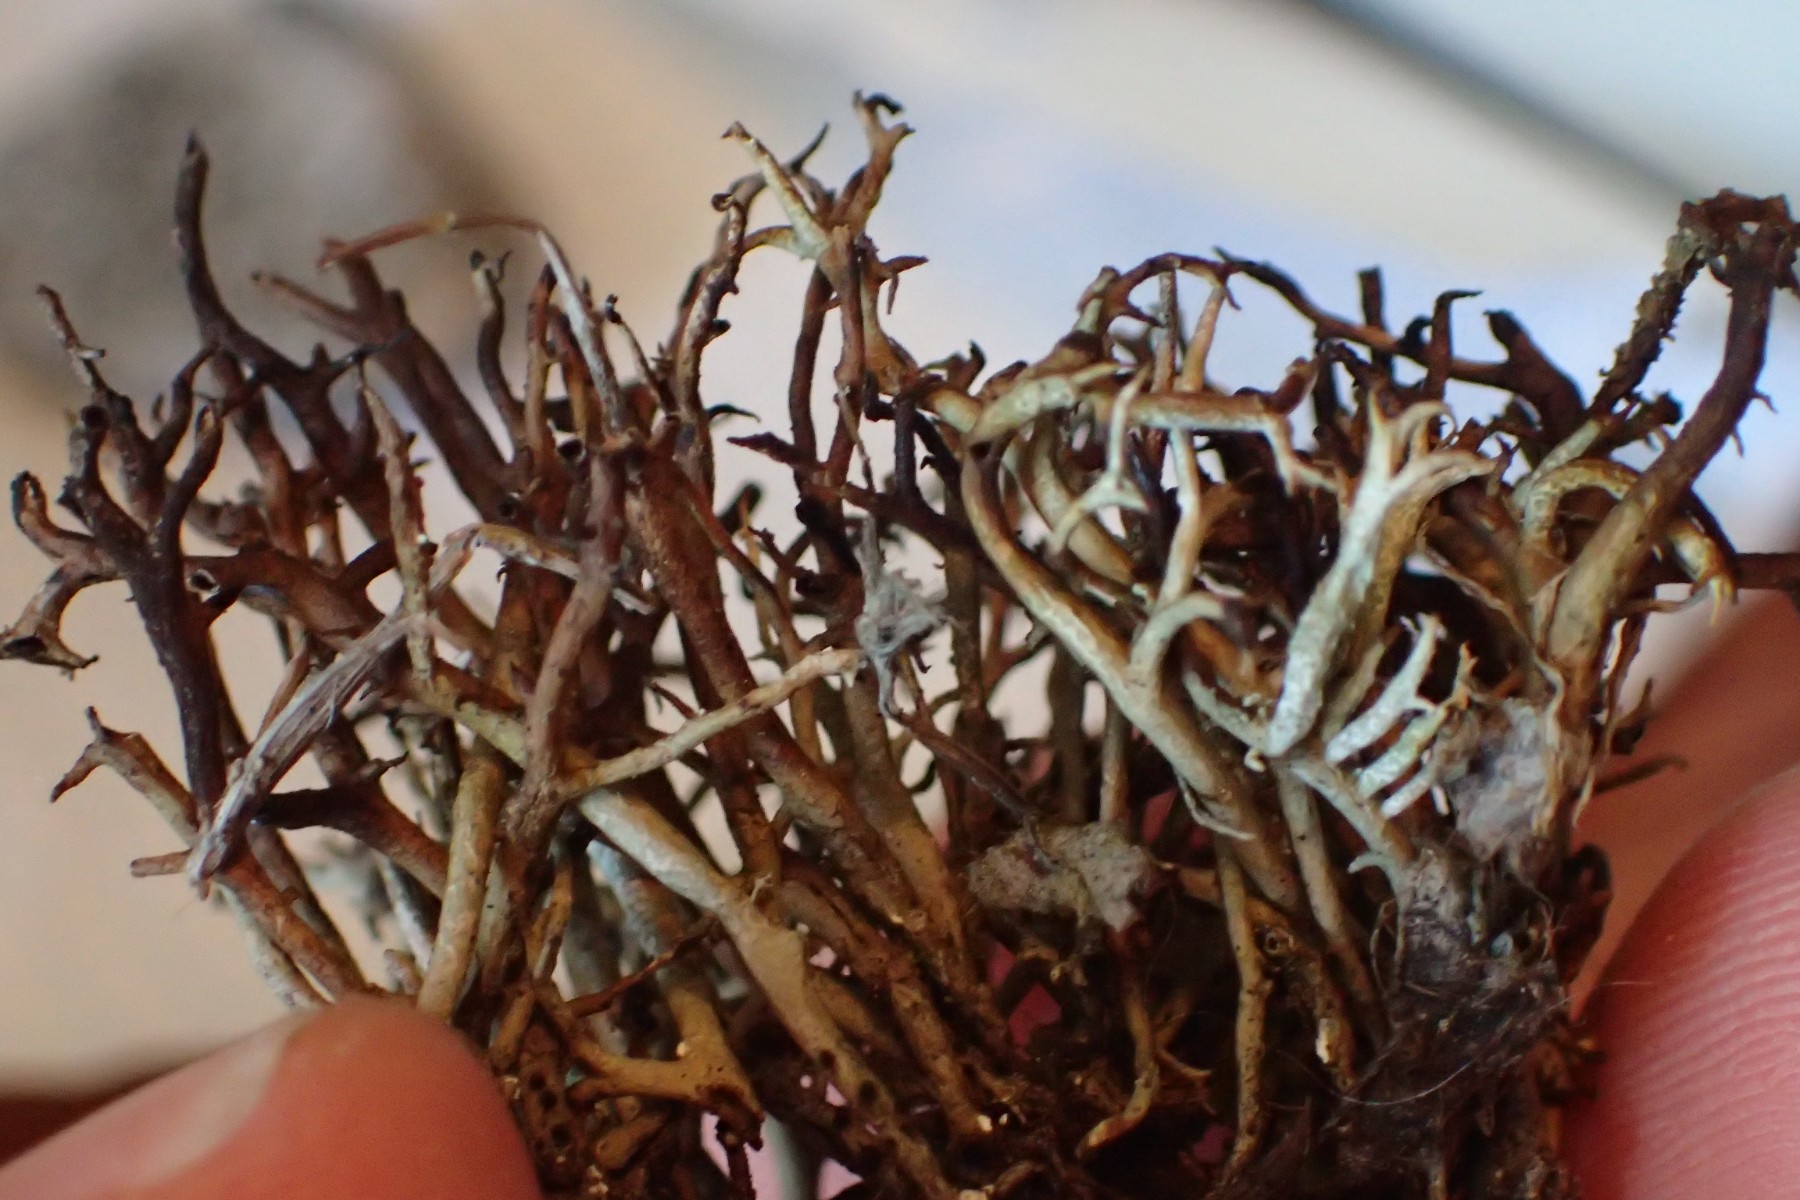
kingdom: Fungi
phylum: Ascomycota
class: Lecanoromycetes
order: Lecanorales
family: Cladoniaceae
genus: Cladonia
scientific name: Cladonia furcata
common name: kløftet bægerlav
